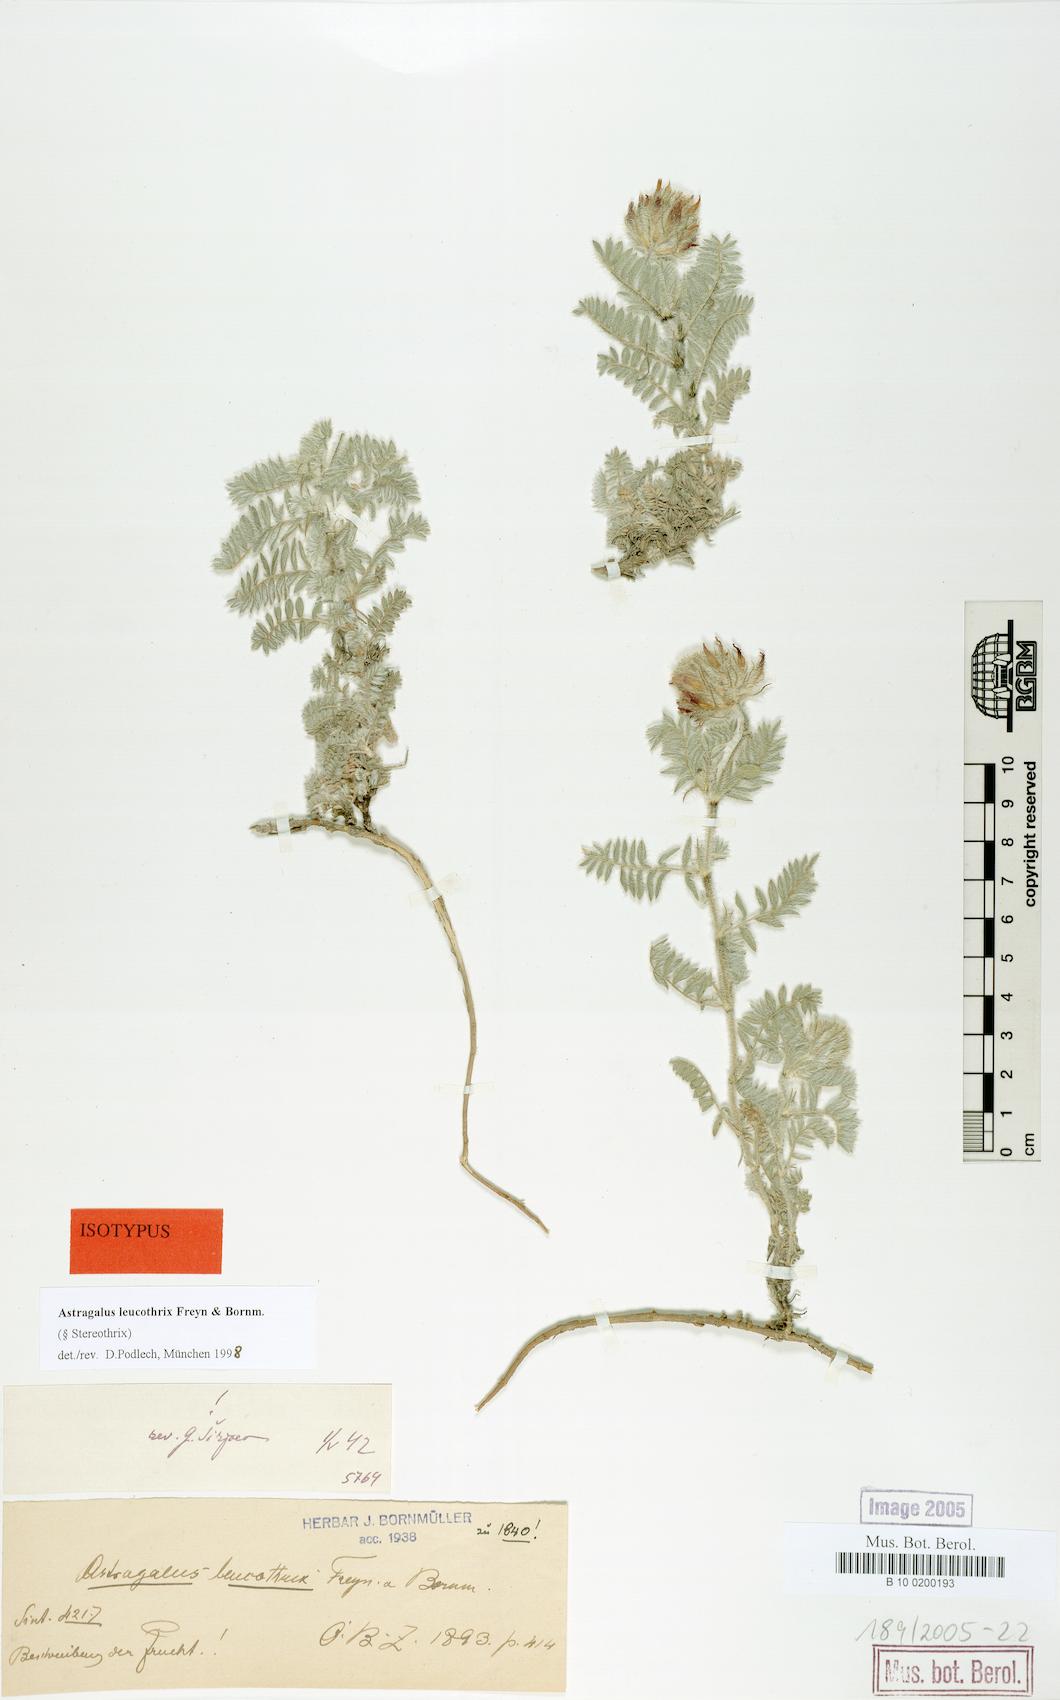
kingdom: Plantae
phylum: Tracheophyta
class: Magnoliopsida
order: Fabales
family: Fabaceae
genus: Astragalus
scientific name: Astragalus leucothrix
